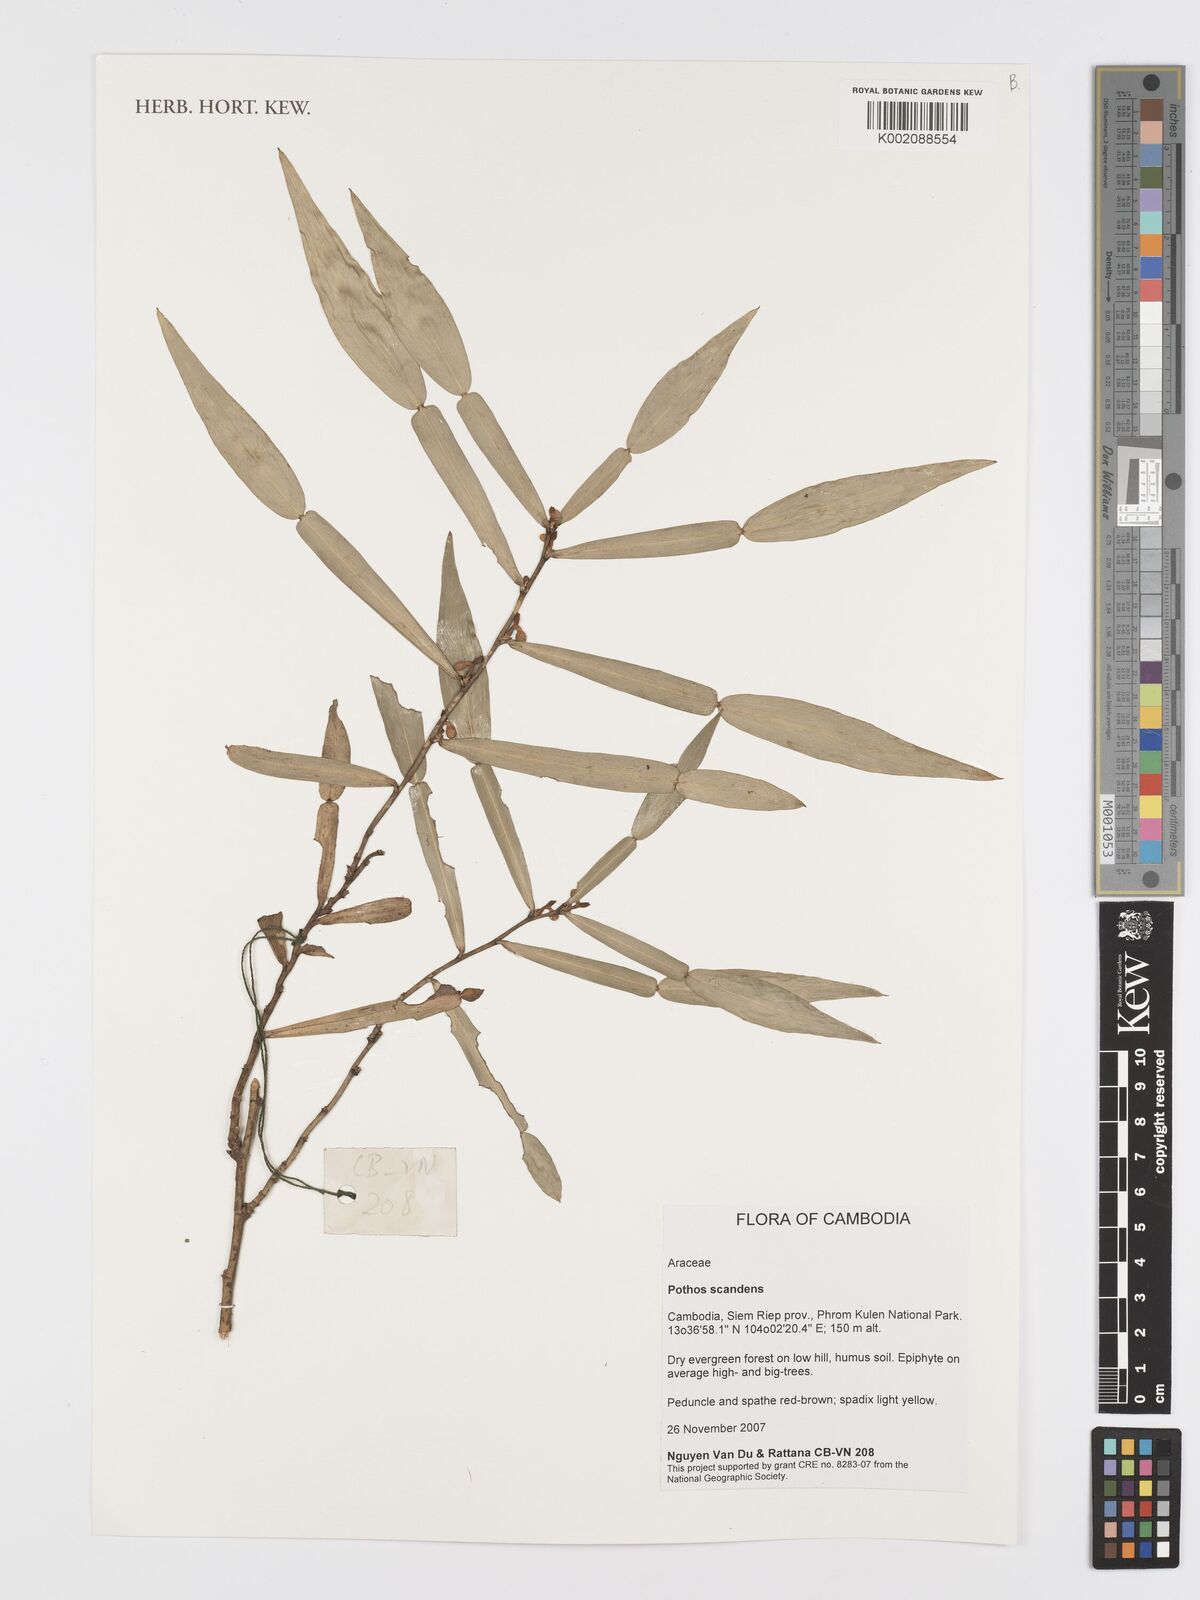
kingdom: Plantae
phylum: Tracheophyta
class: Liliopsida
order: Alismatales
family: Araceae
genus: Pothos
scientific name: Pothos scandens
